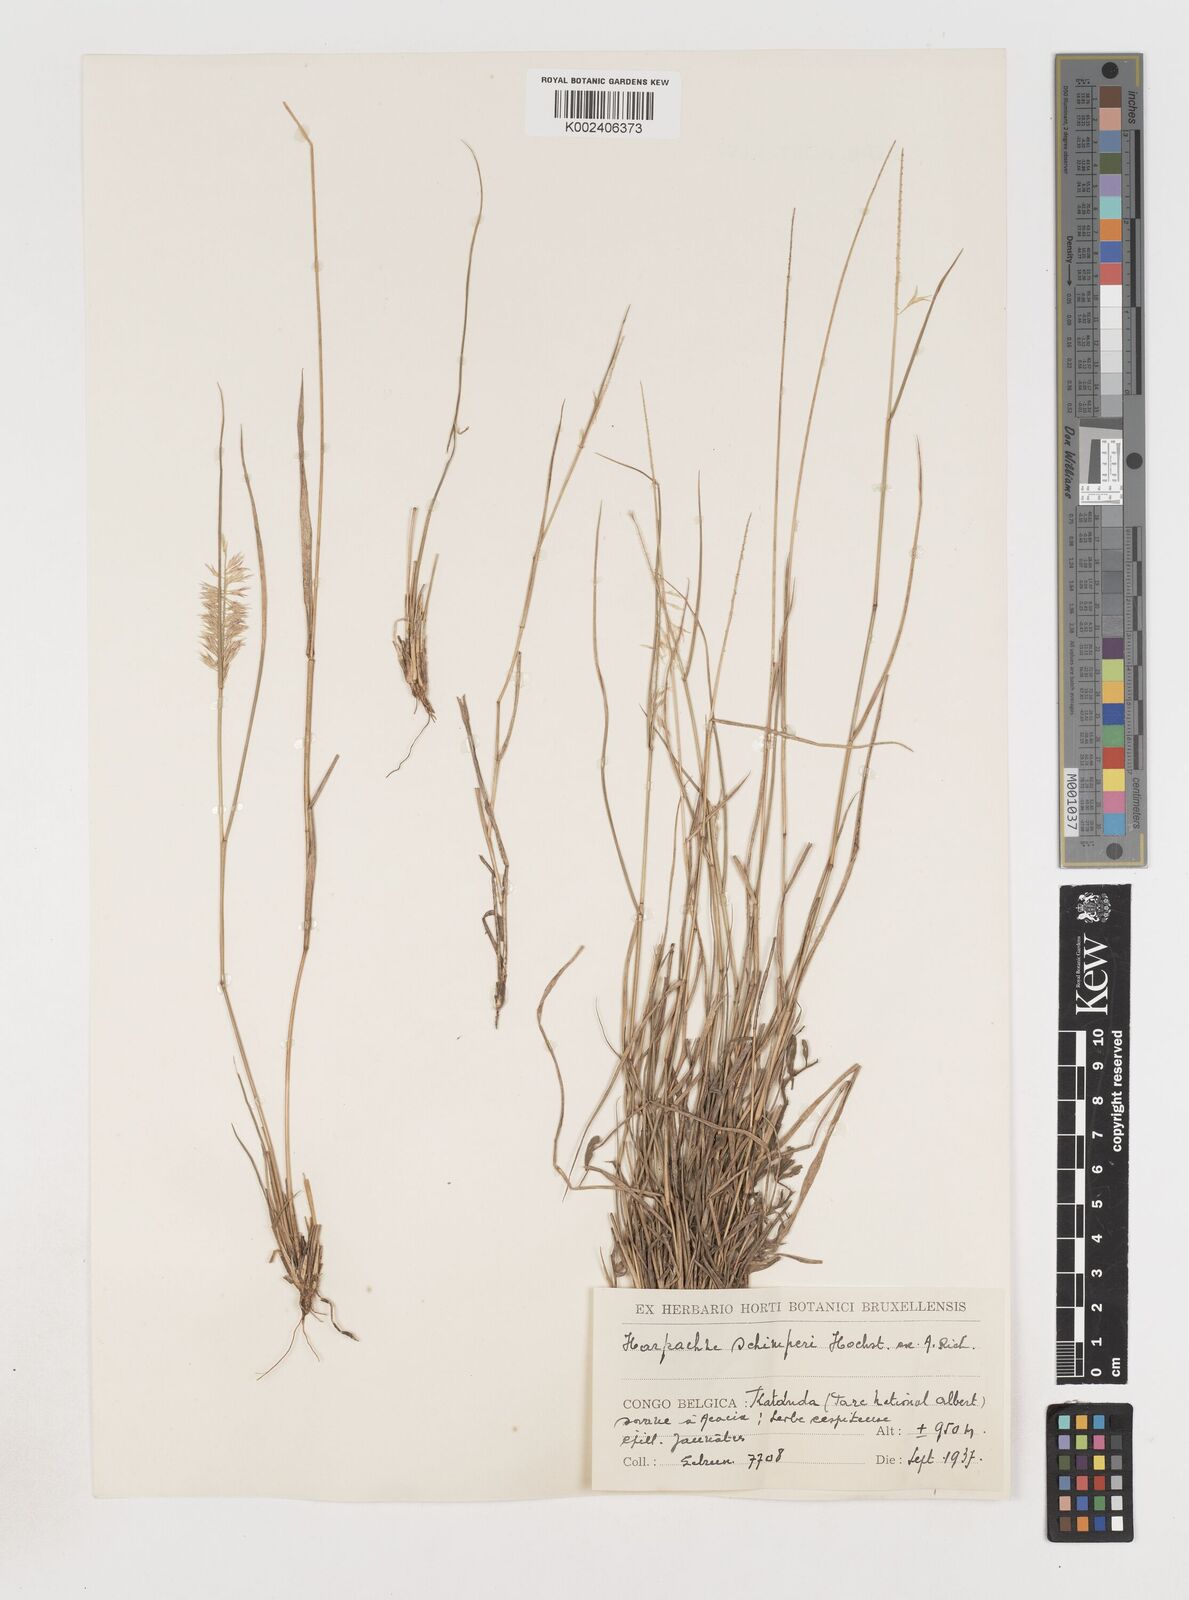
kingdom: Plantae
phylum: Tracheophyta
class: Liliopsida
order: Poales
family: Poaceae
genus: Harpachne
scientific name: Harpachne schimperi
